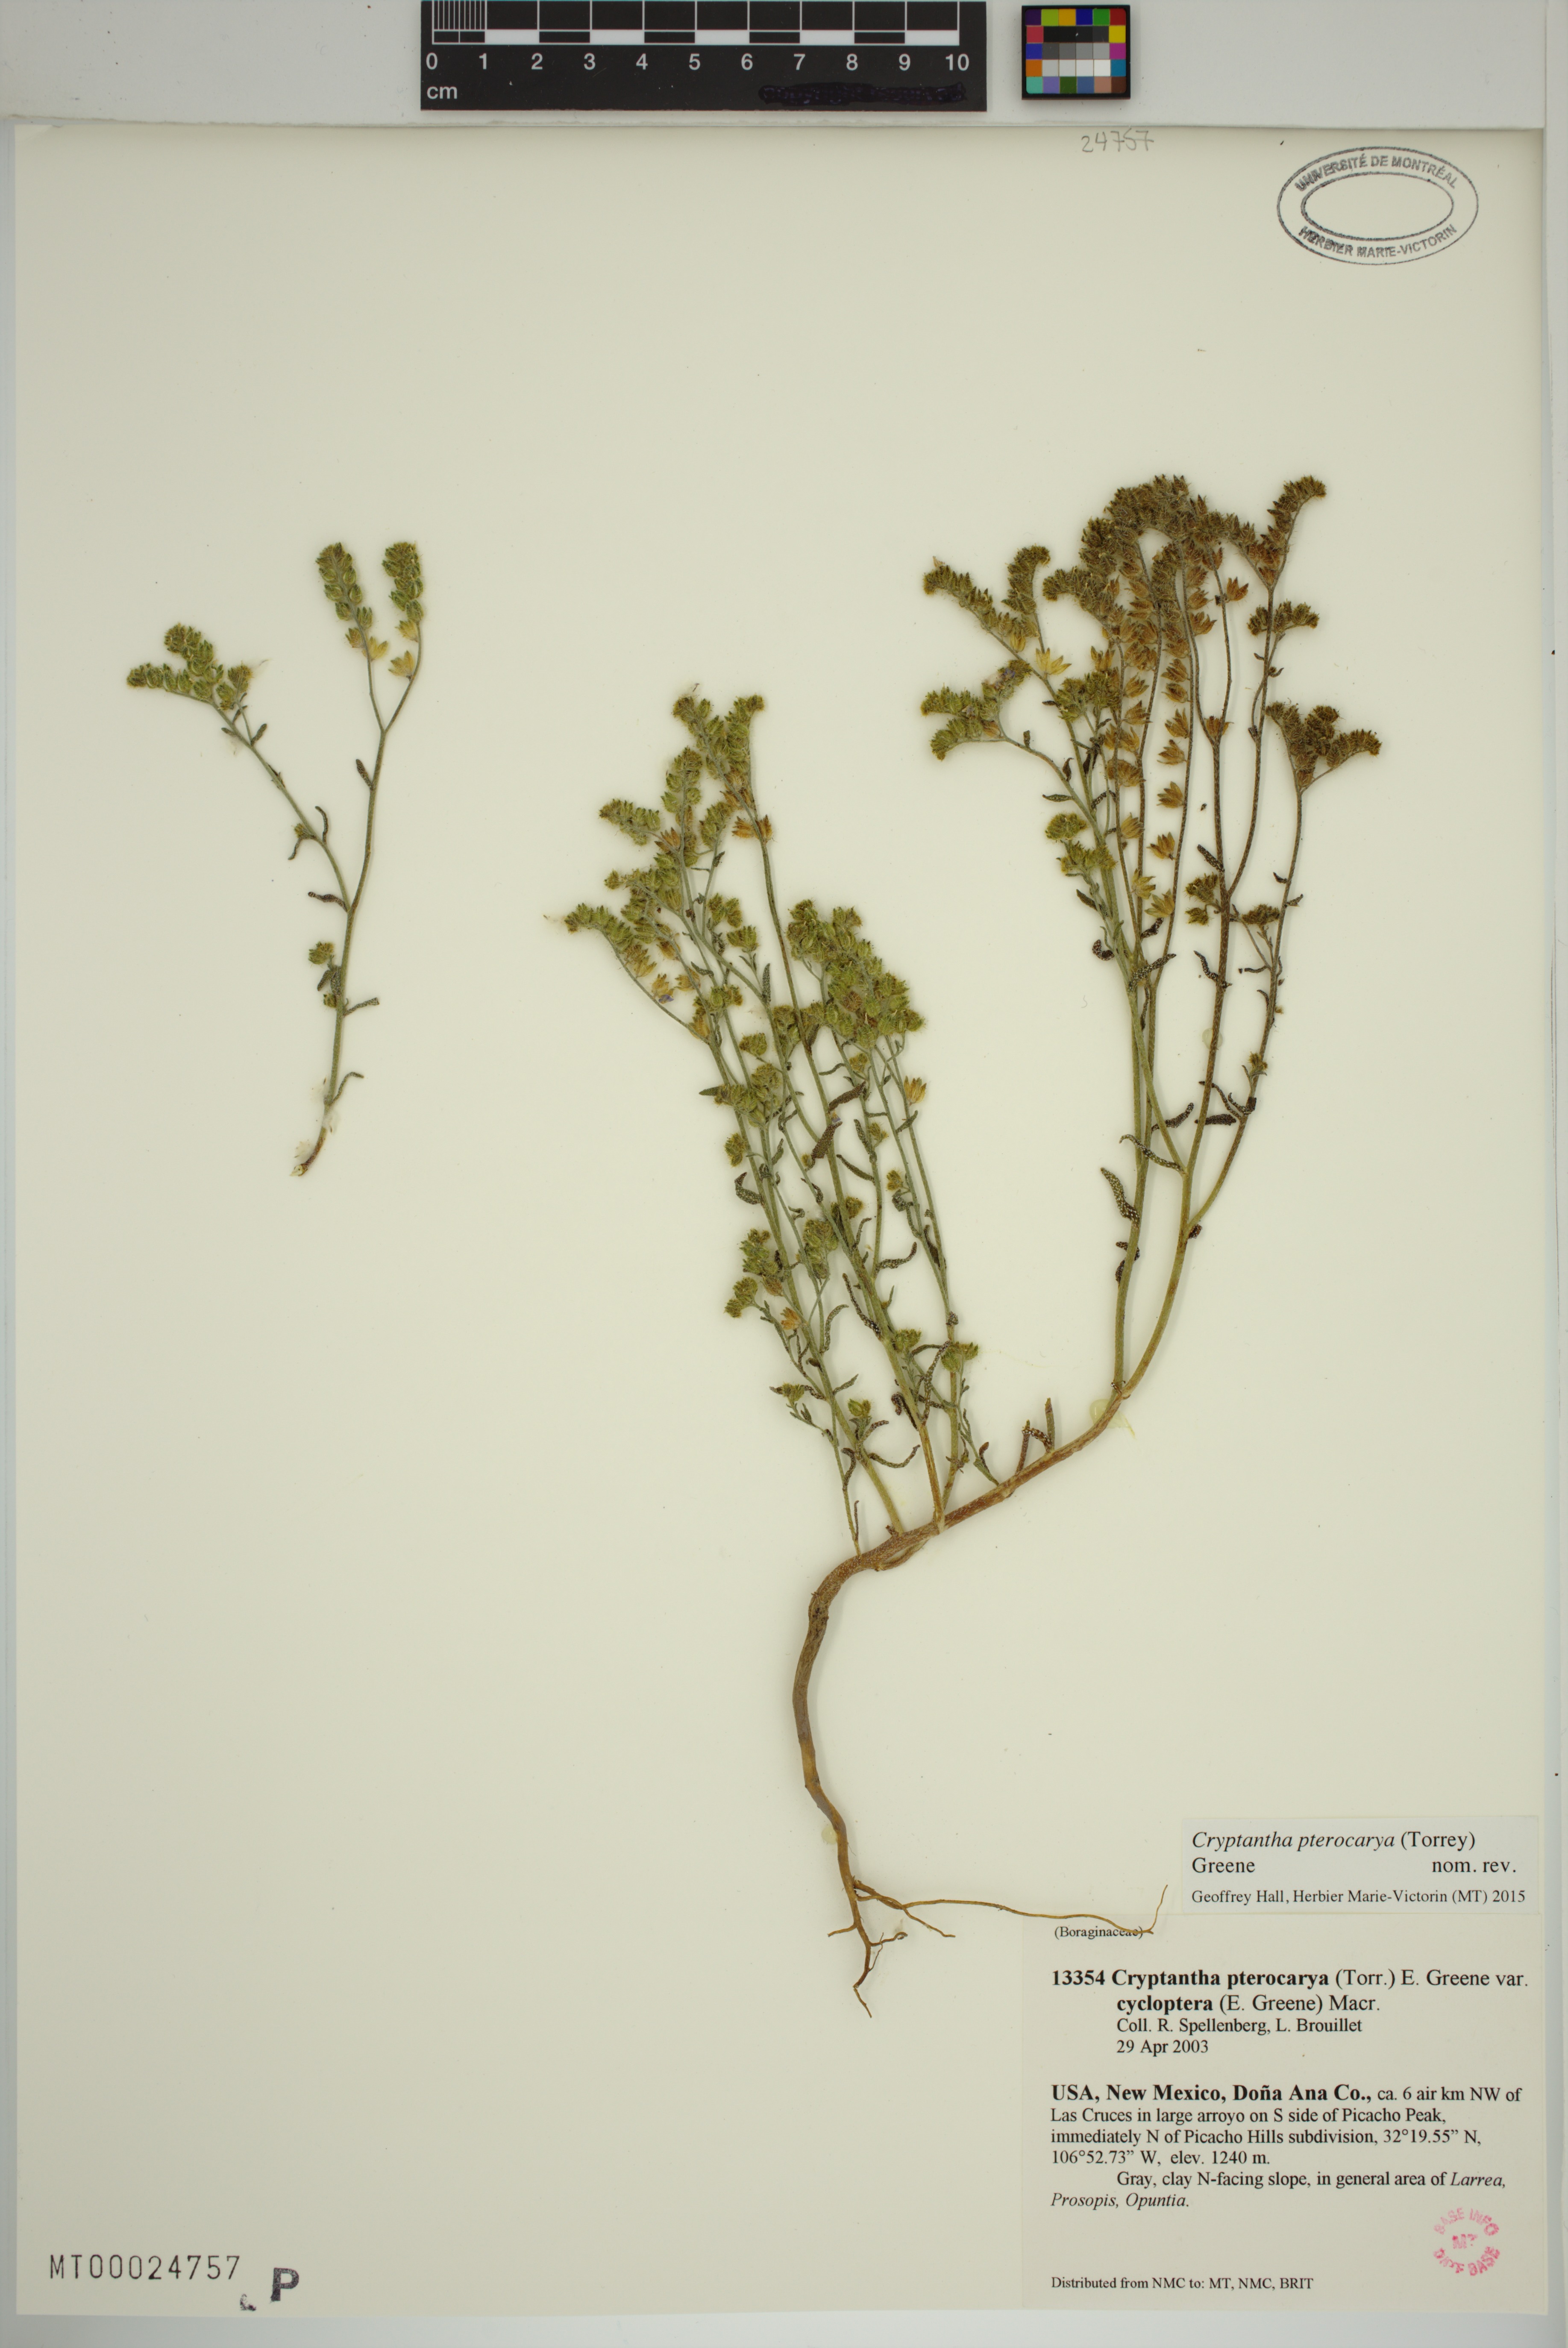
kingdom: Plantae
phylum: Tracheophyta
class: Magnoliopsida
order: Boraginales
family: Boraginaceae
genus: Cryptantha
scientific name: Cryptantha cycloptera
